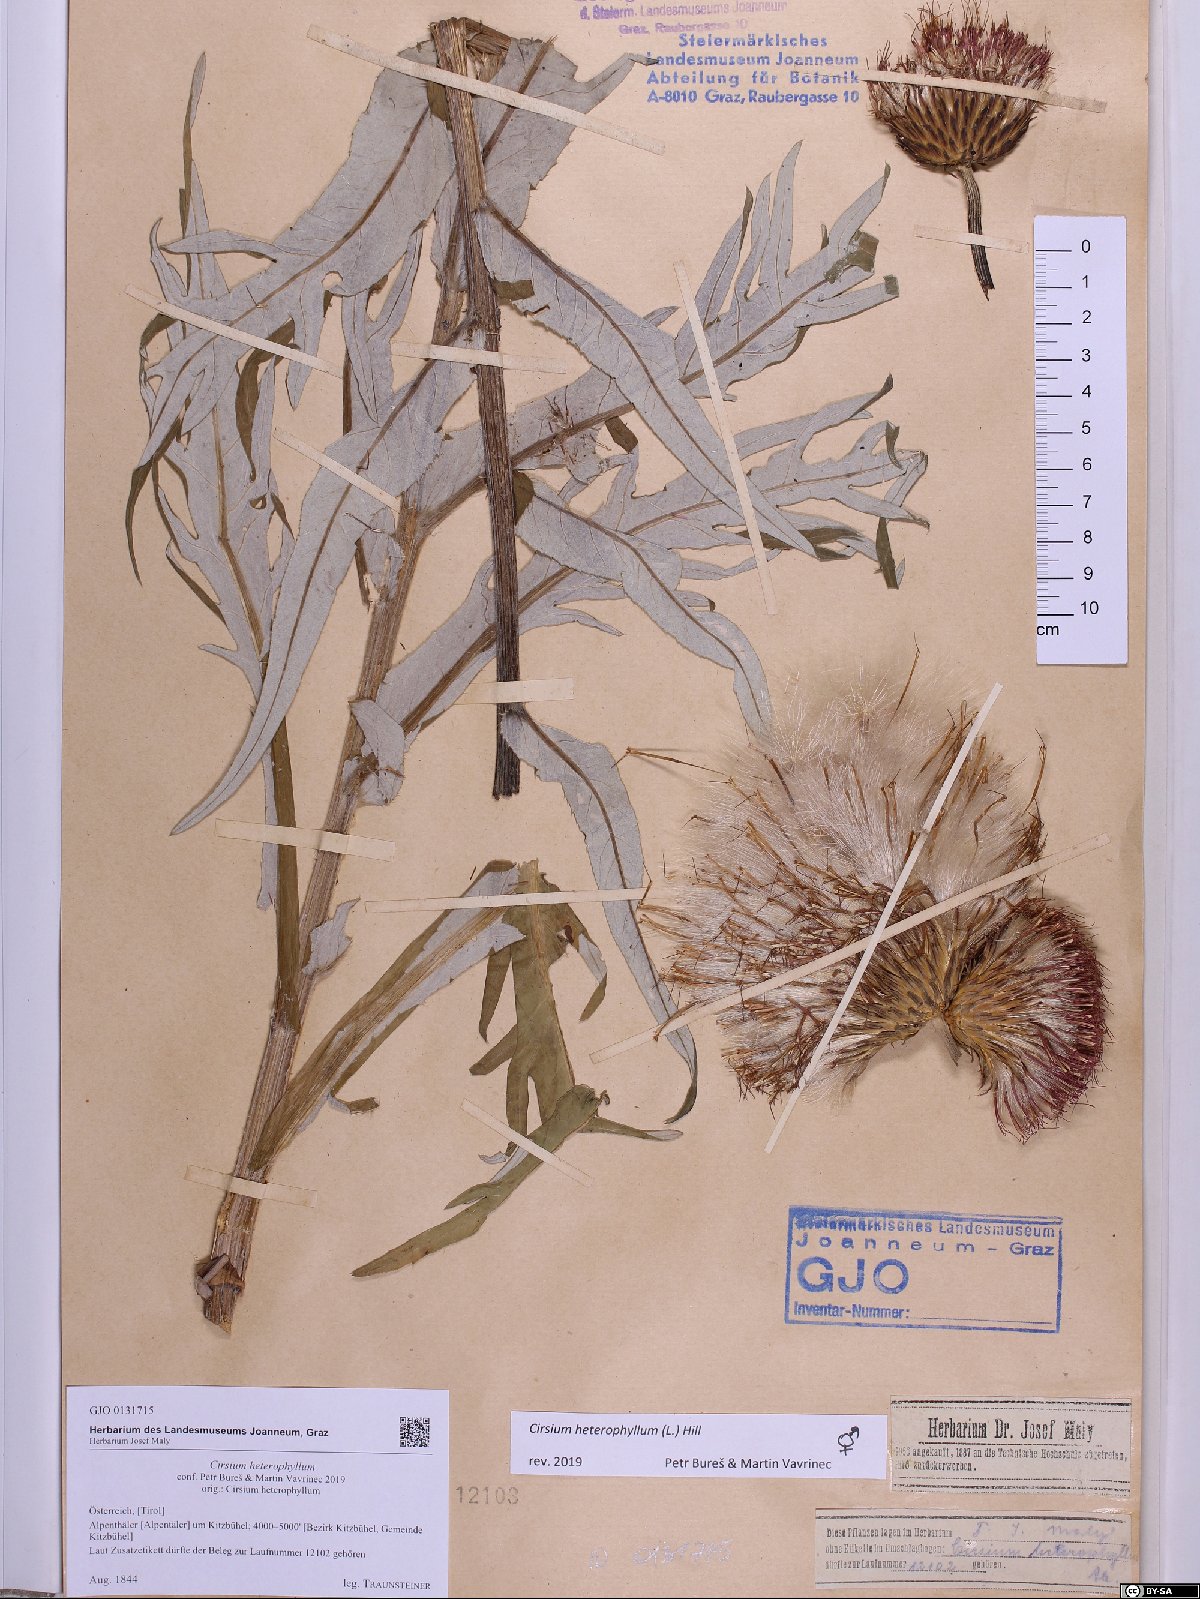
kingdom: Plantae
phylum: Tracheophyta
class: Magnoliopsida
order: Asterales
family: Asteraceae
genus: Cirsium
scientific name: Cirsium heterophyllum
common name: Melancholy thistle
